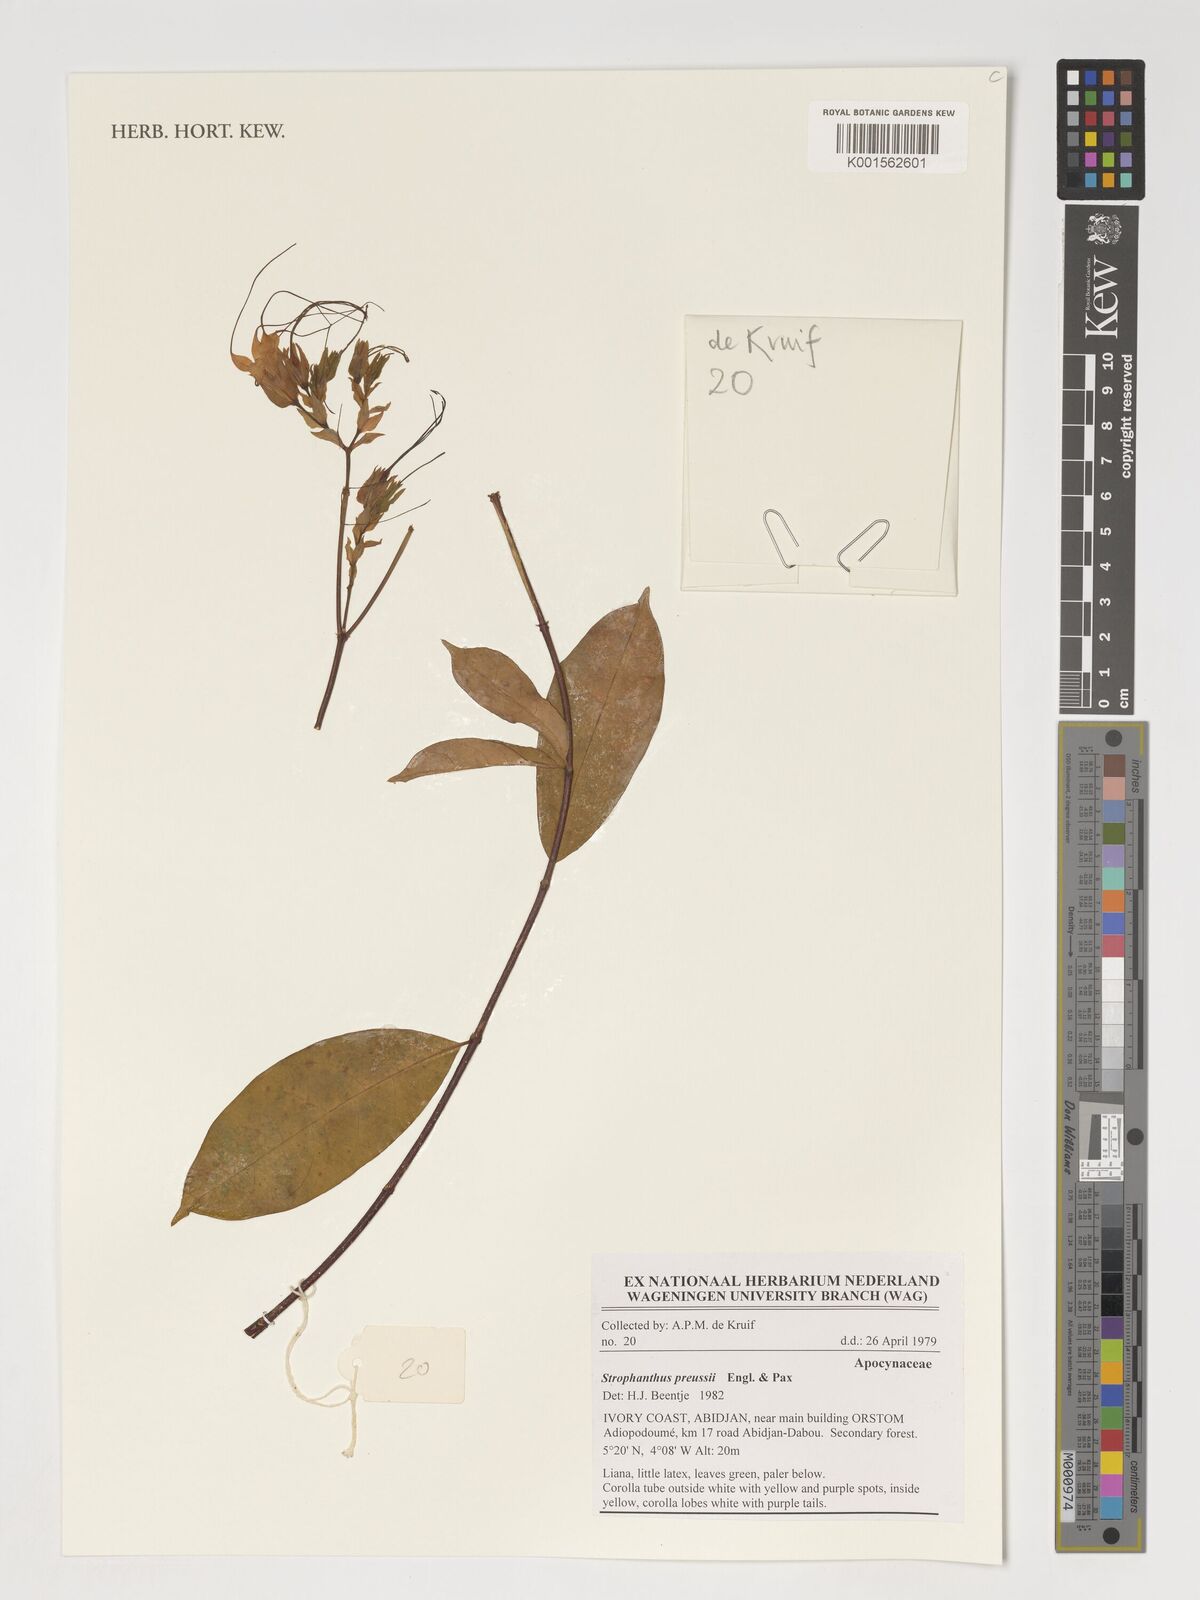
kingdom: Plantae
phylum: Tracheophyta
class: Magnoliopsida
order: Gentianales
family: Apocynaceae
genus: Strophanthus
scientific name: Strophanthus preussii
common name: Medisa-flower
